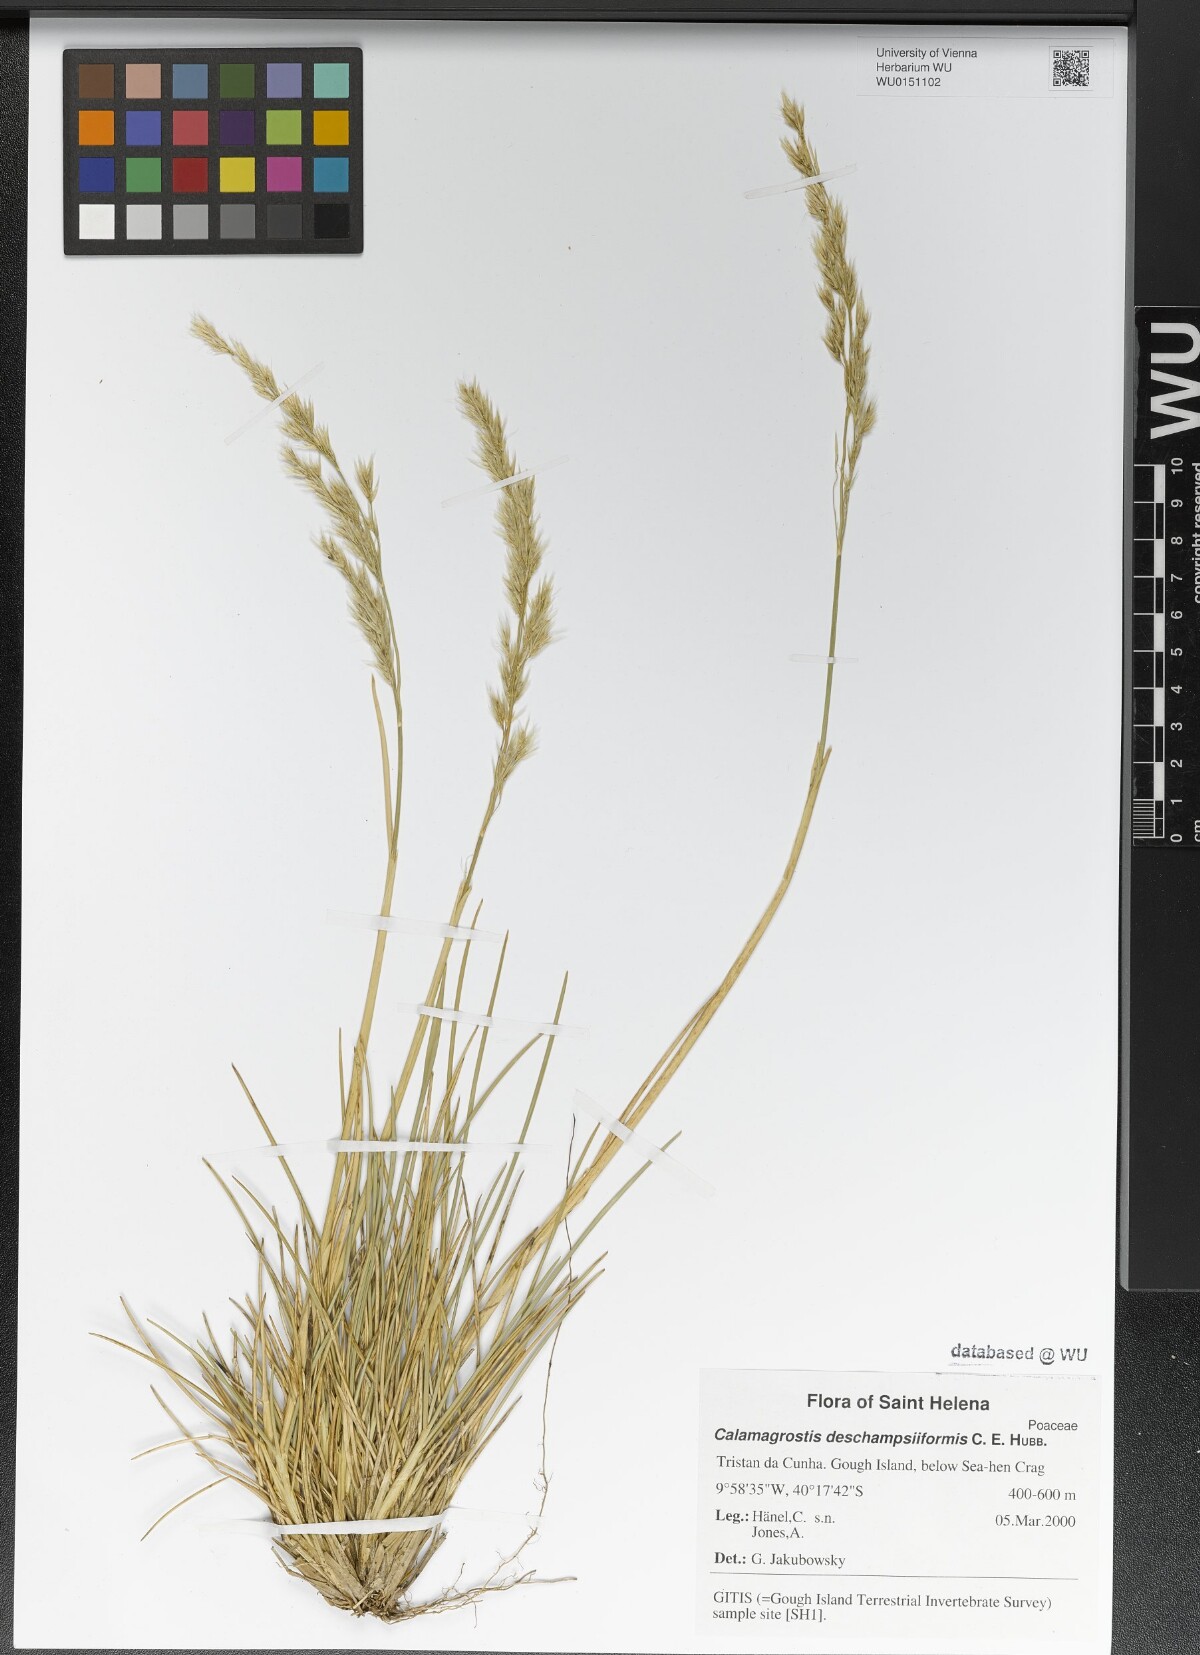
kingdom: Plantae
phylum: Tracheophyta
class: Liliopsida
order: Poales
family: Poaceae
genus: Calamagrostis
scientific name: Calamagrostis deschampsiiformis
